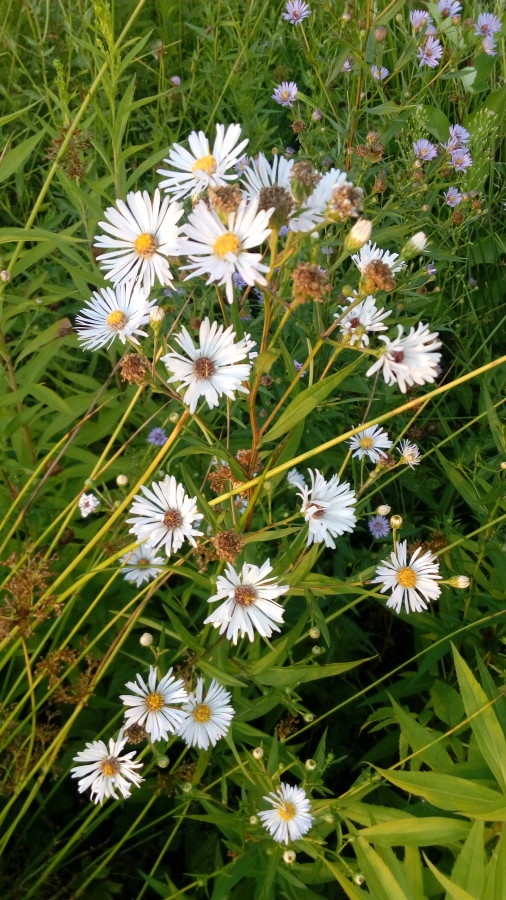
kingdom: Plantae
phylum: Tracheophyta
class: Magnoliopsida
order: Asterales
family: Asteraceae
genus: Symphyotrichum
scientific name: Symphyotrichum salignum
